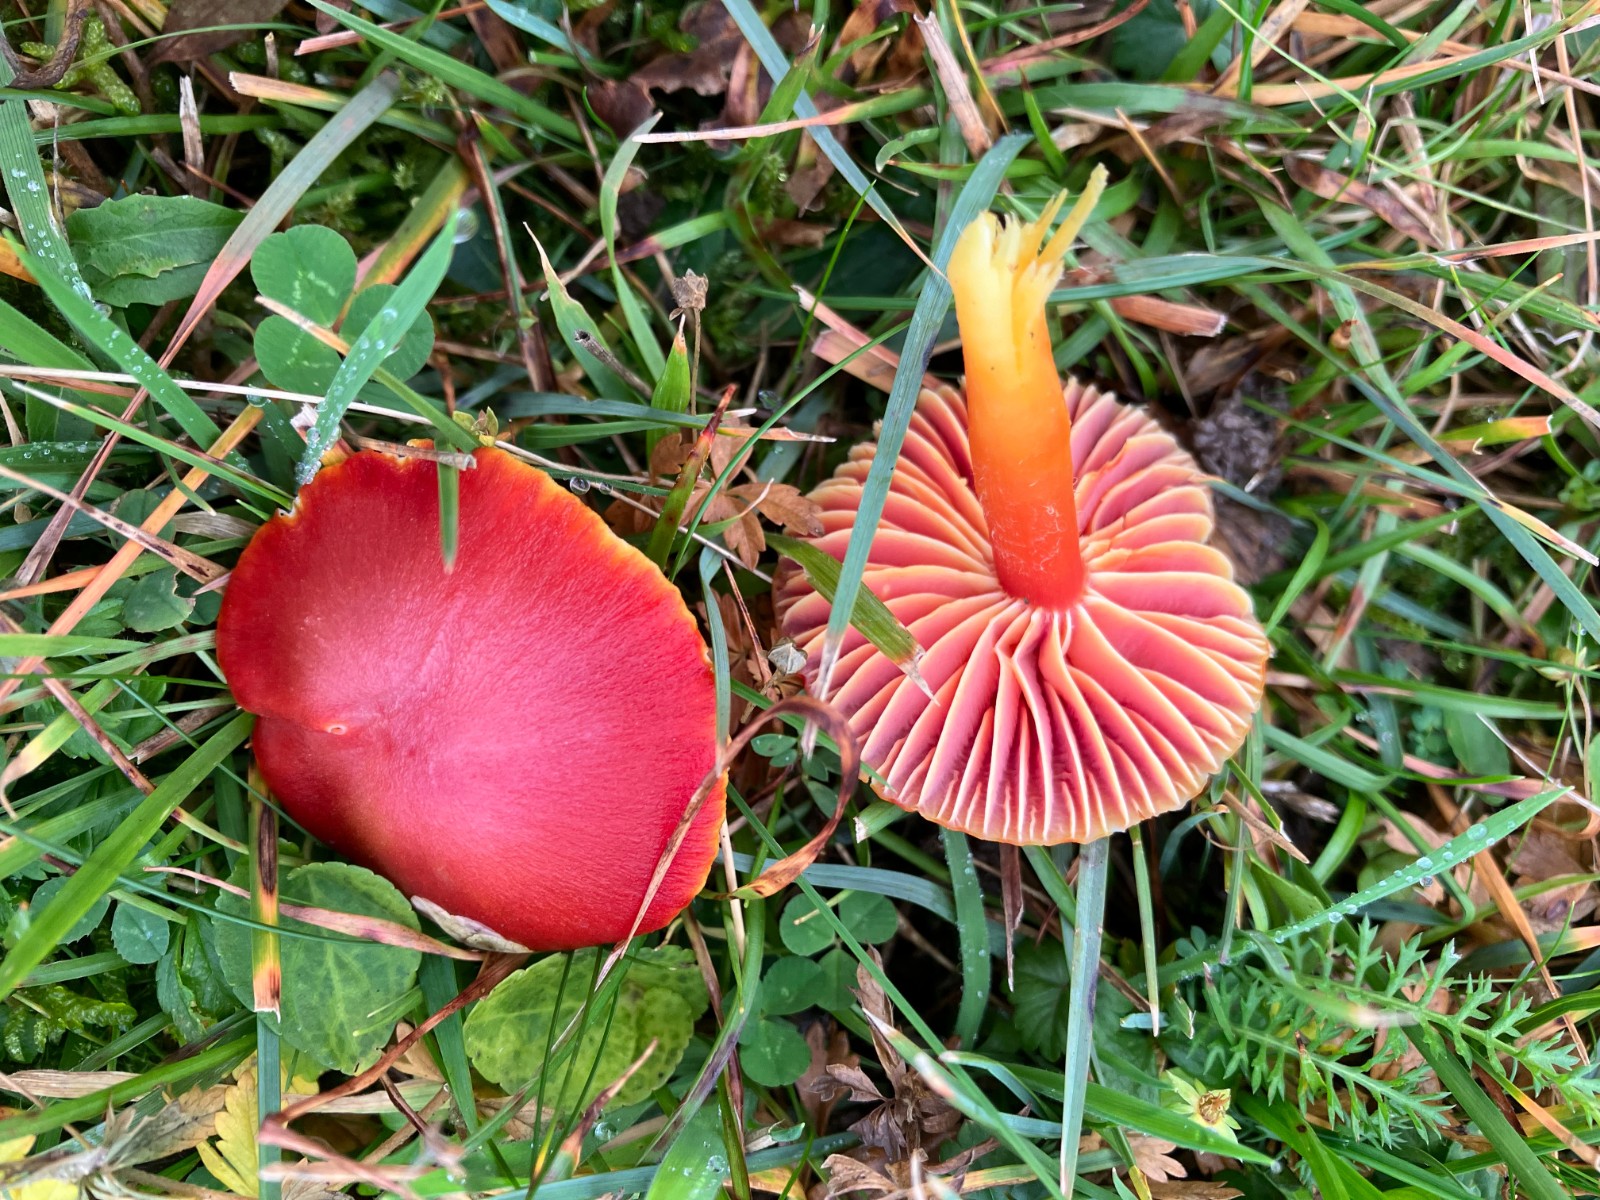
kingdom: Fungi
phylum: Basidiomycota
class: Agaricomycetes
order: Agaricales
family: Hygrophoraceae
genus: Hygrocybe
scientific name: Hygrocybe coccinea
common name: cinnober-vokshat
